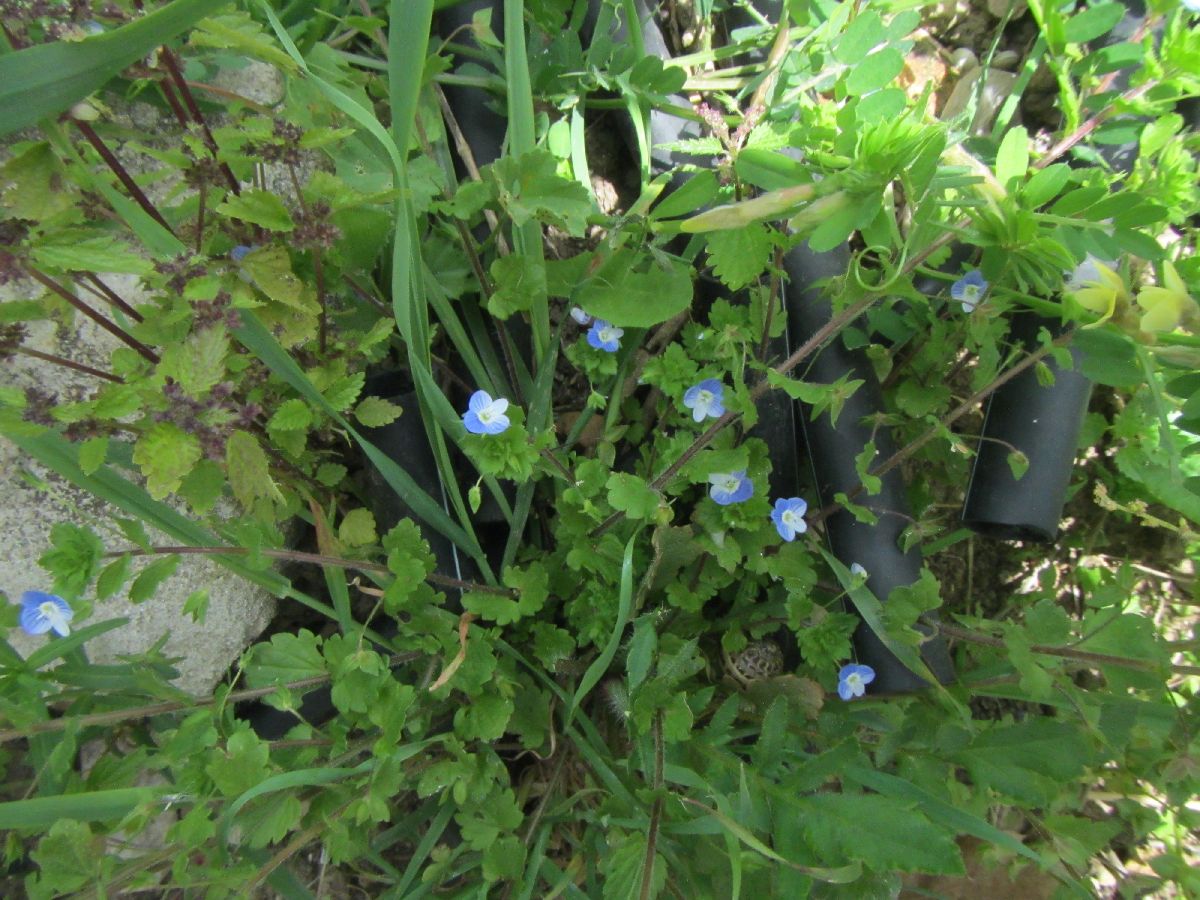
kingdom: Plantae
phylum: Tracheophyta
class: Magnoliopsida
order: Lamiales
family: Plantaginaceae
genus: Veronica
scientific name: Veronica
